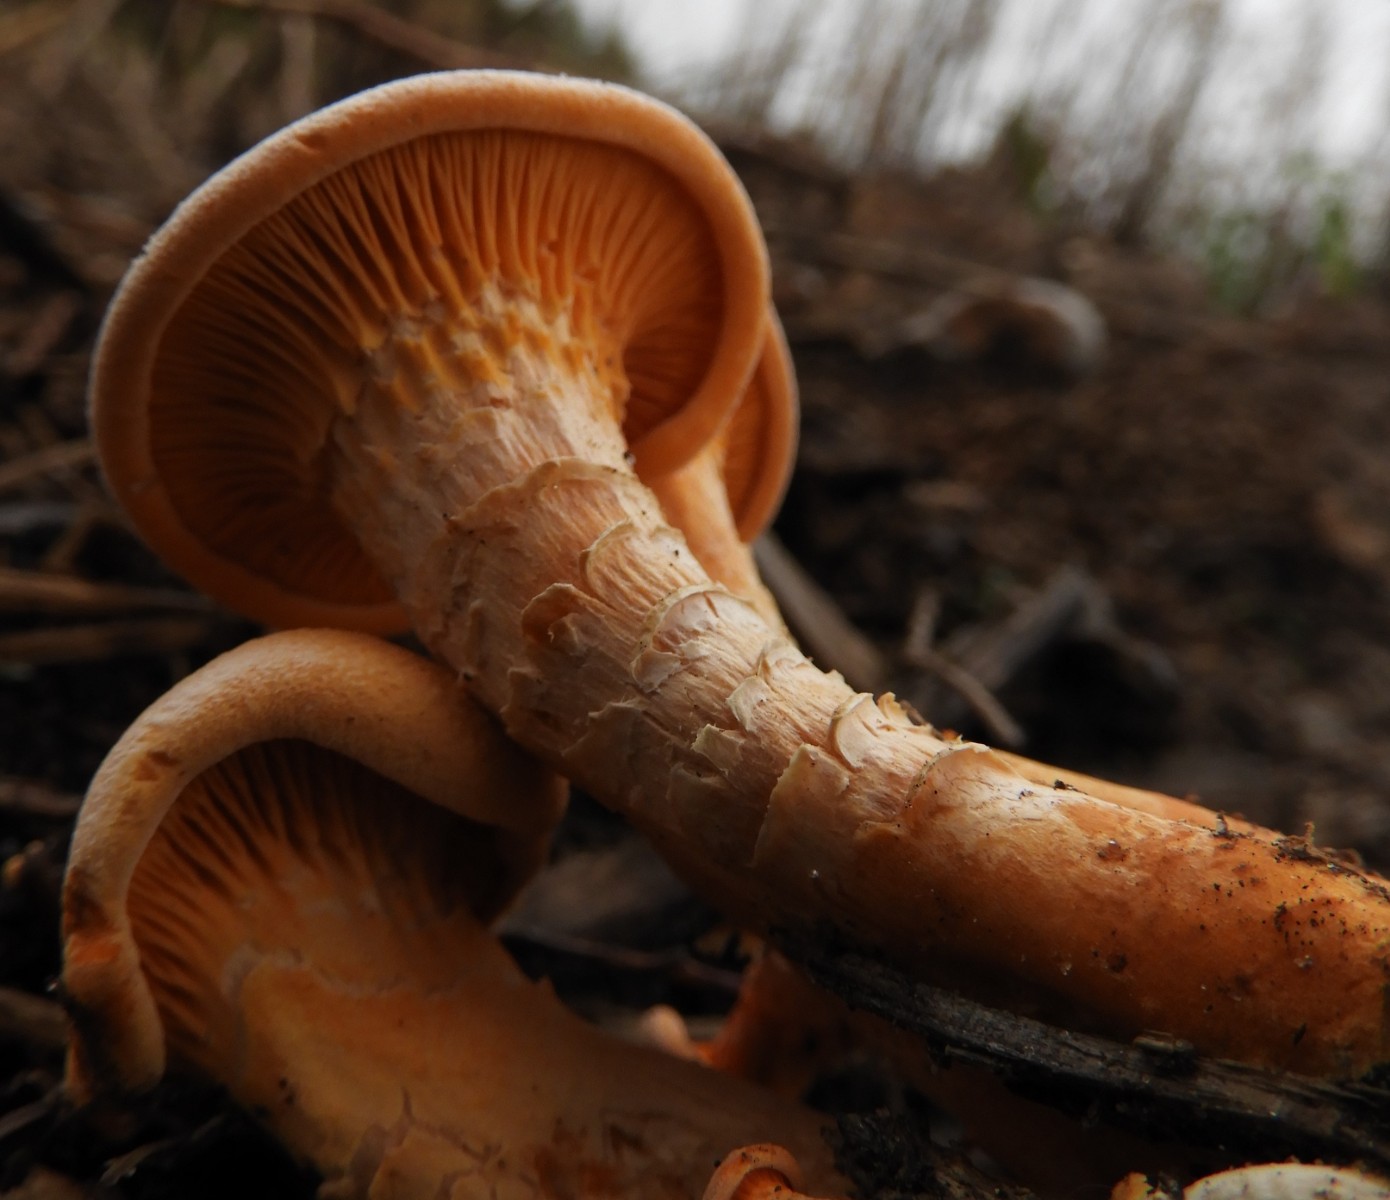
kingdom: Fungi
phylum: Basidiomycota
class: Agaricomycetes
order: Boletales
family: Hygrophoropsidaceae
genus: Hygrophoropsis
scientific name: Hygrophoropsis aurantiaca
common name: almindelig orangekantarel
